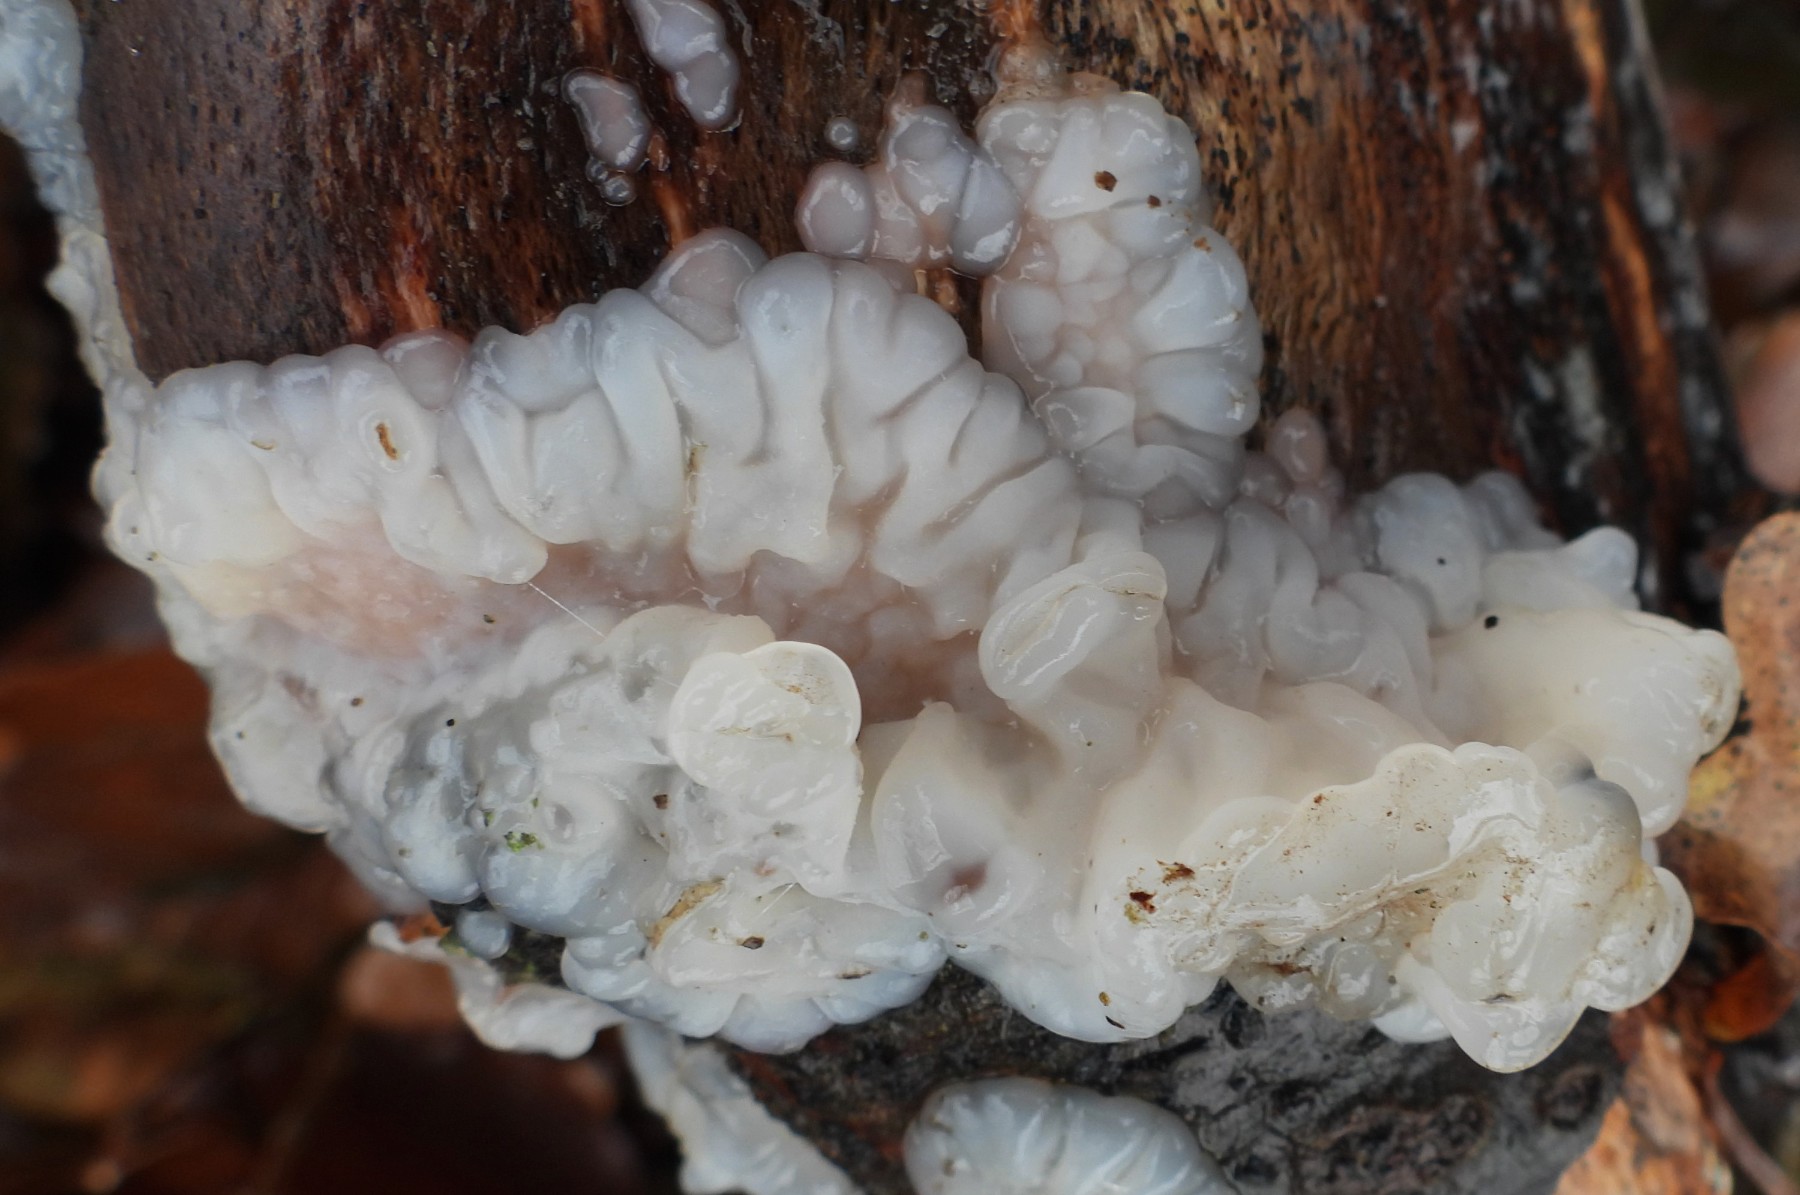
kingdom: Fungi
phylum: Basidiomycota
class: Agaricomycetes
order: Auriculariales
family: Auriculariaceae
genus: Exidia
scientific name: Exidia thuretiana
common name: hvidlig bævretop
